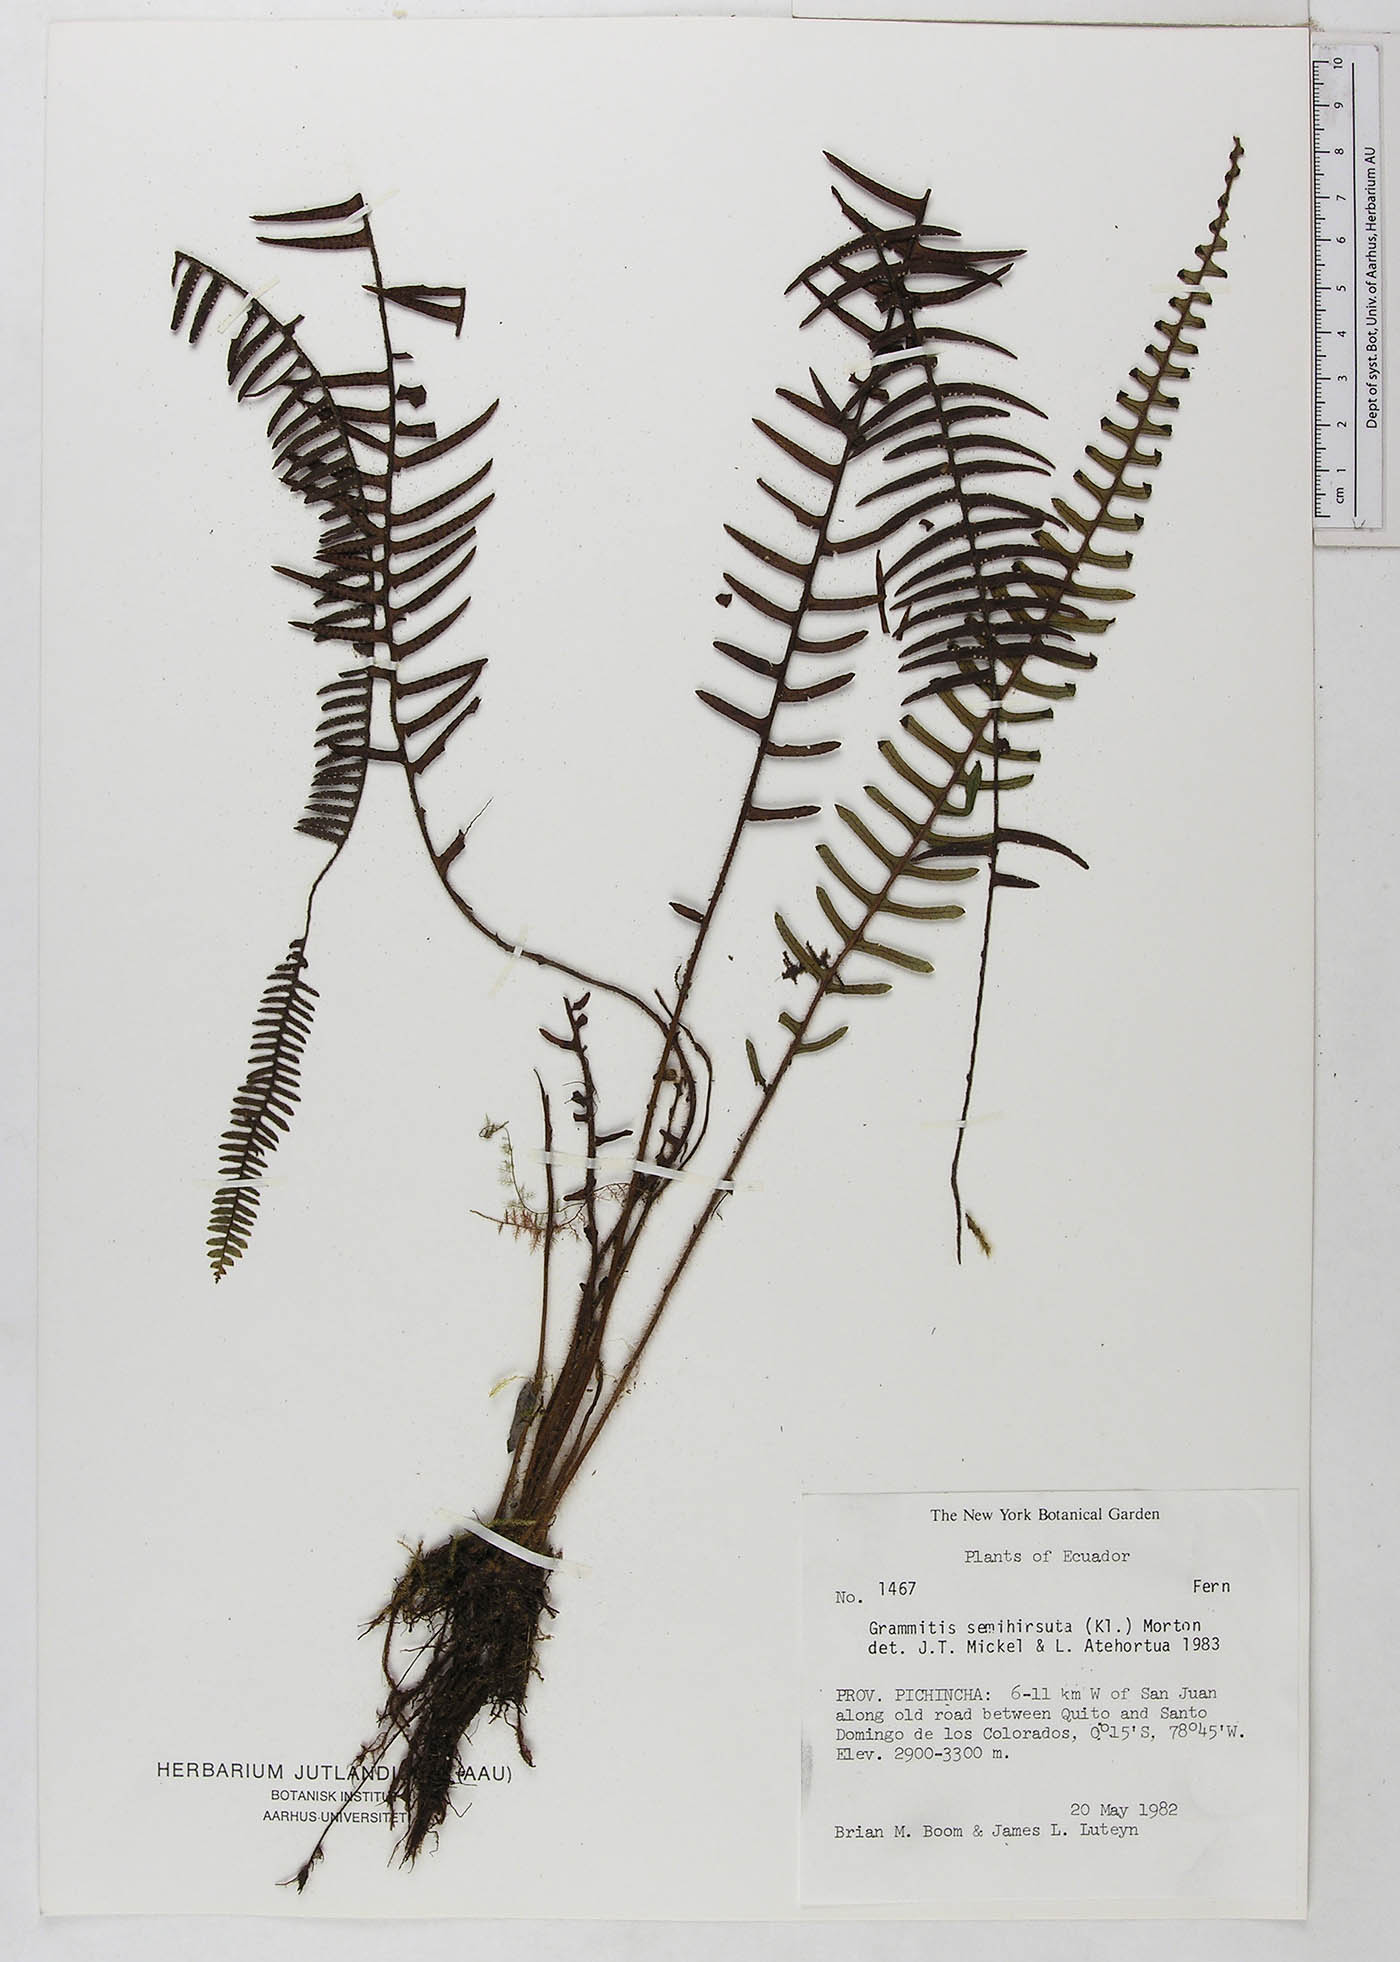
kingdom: Plantae
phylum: Tracheophyta
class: Polypodiopsida
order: Polypodiales
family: Polypodiaceae
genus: Mycopteris
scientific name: Mycopteris semihirsuta
